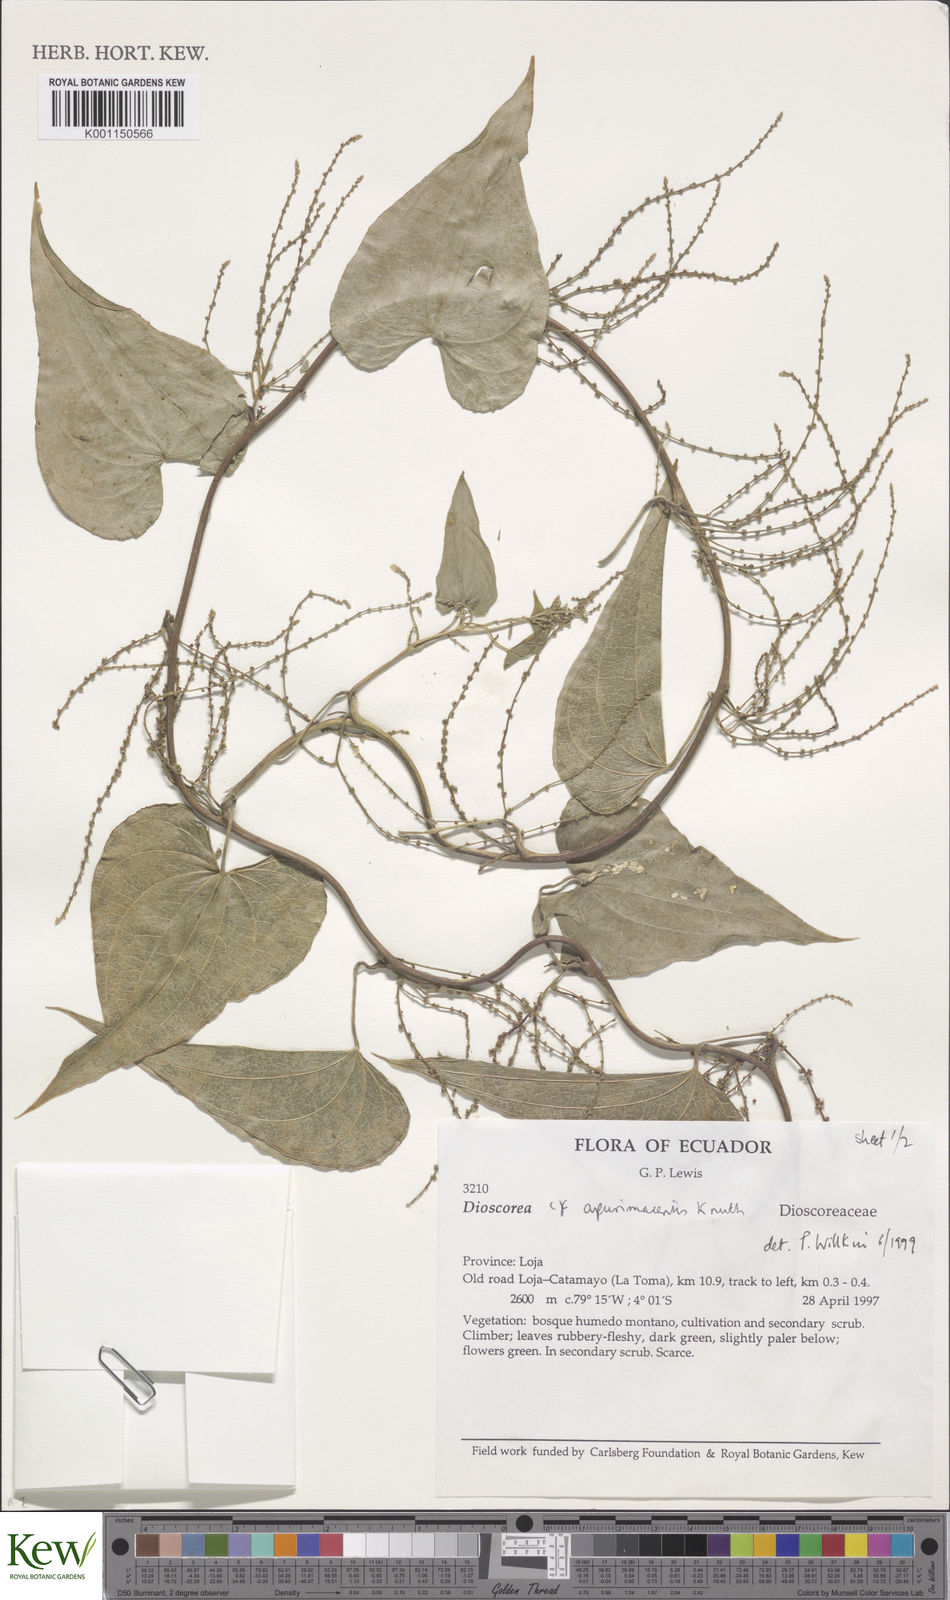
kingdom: Plantae
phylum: Tracheophyta
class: Liliopsida
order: Dioscoreales
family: Dioscoreaceae
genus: Dioscorea
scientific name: Dioscorea acanthogene
